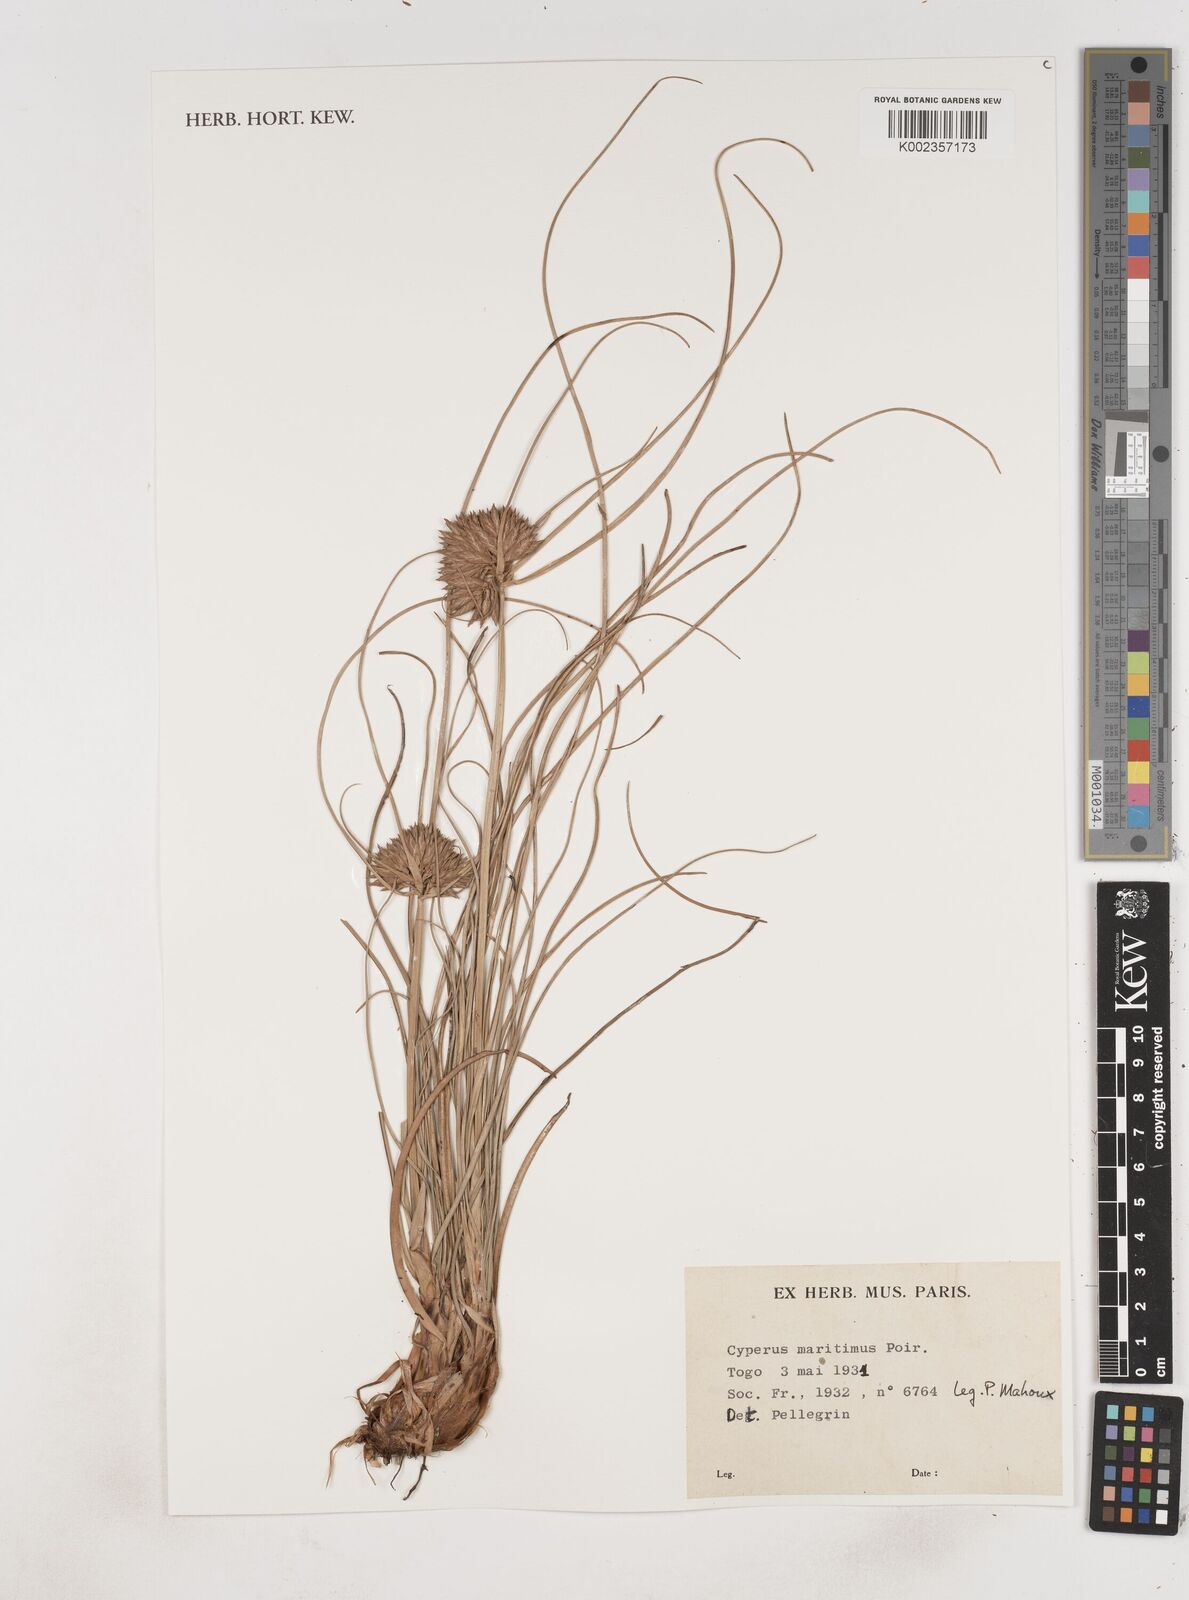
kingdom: Plantae
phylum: Tracheophyta
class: Liliopsida
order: Poales
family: Cyperaceae
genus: Cyperus
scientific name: Cyperus crassipes
